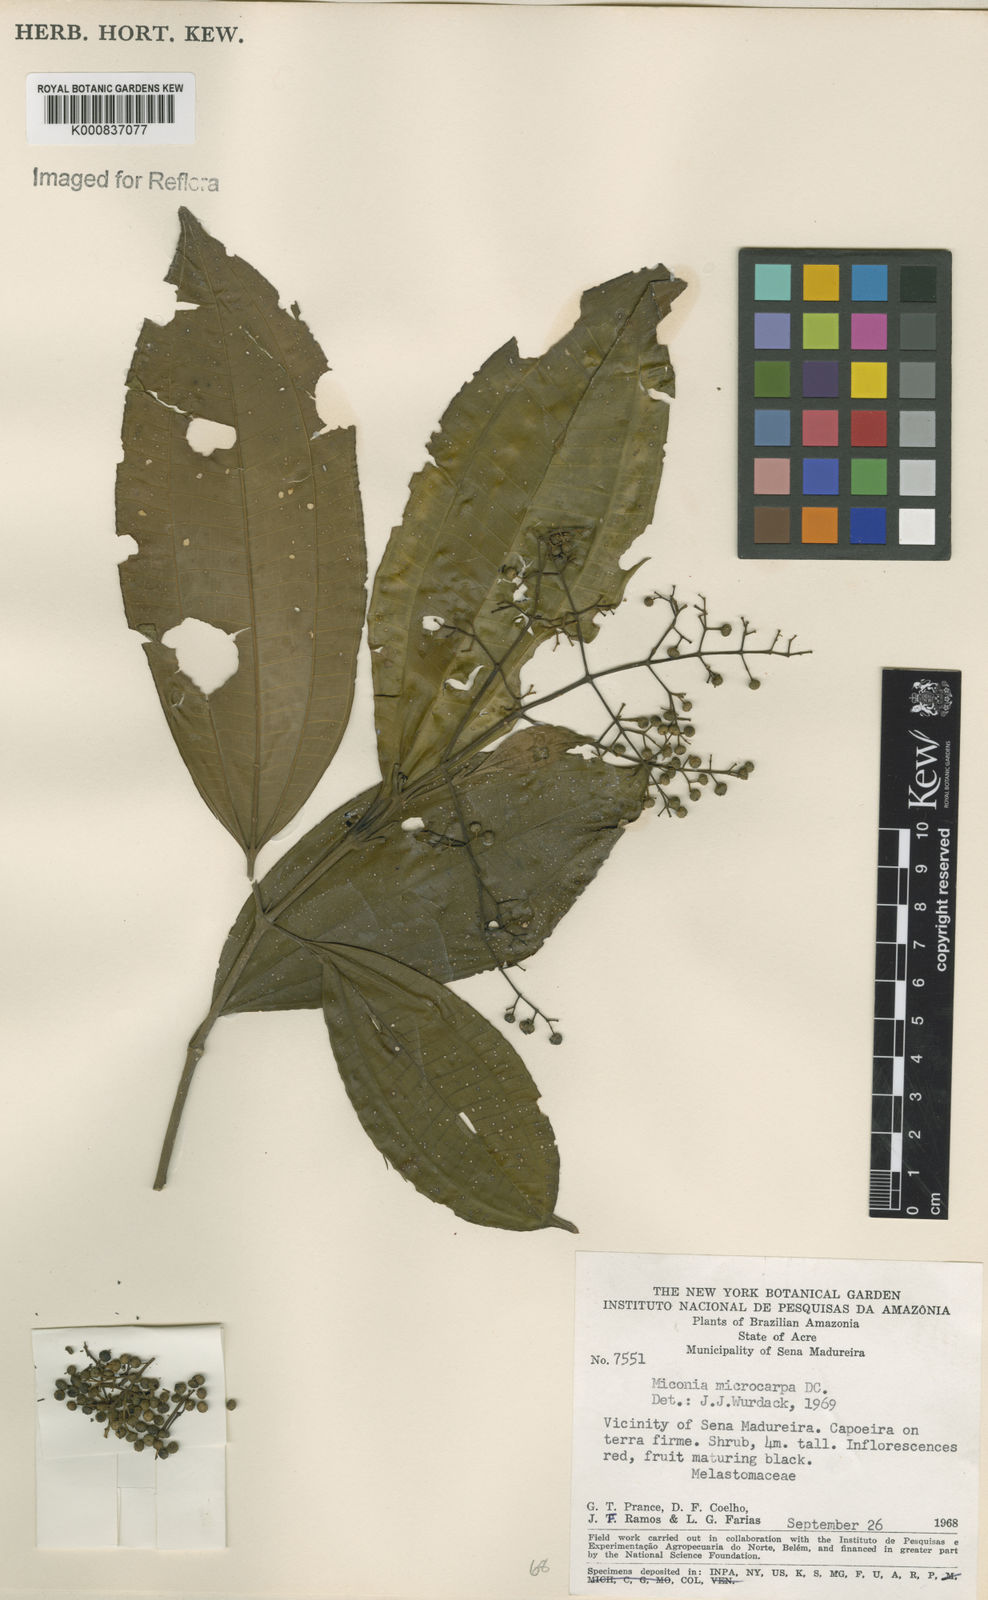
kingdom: Plantae
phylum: Tracheophyta
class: Magnoliopsida
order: Myrtales
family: Melastomataceae
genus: Miconia
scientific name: Miconia affinis
